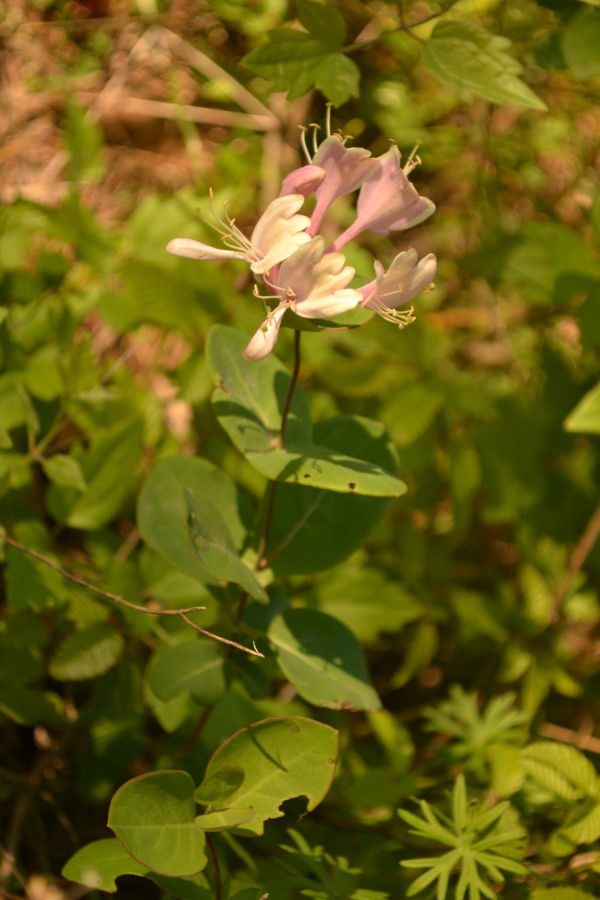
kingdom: Plantae
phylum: Tracheophyta
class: Magnoliopsida
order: Dipsacales
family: Caprifoliaceae
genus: Lonicera
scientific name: Lonicera caprifolium
